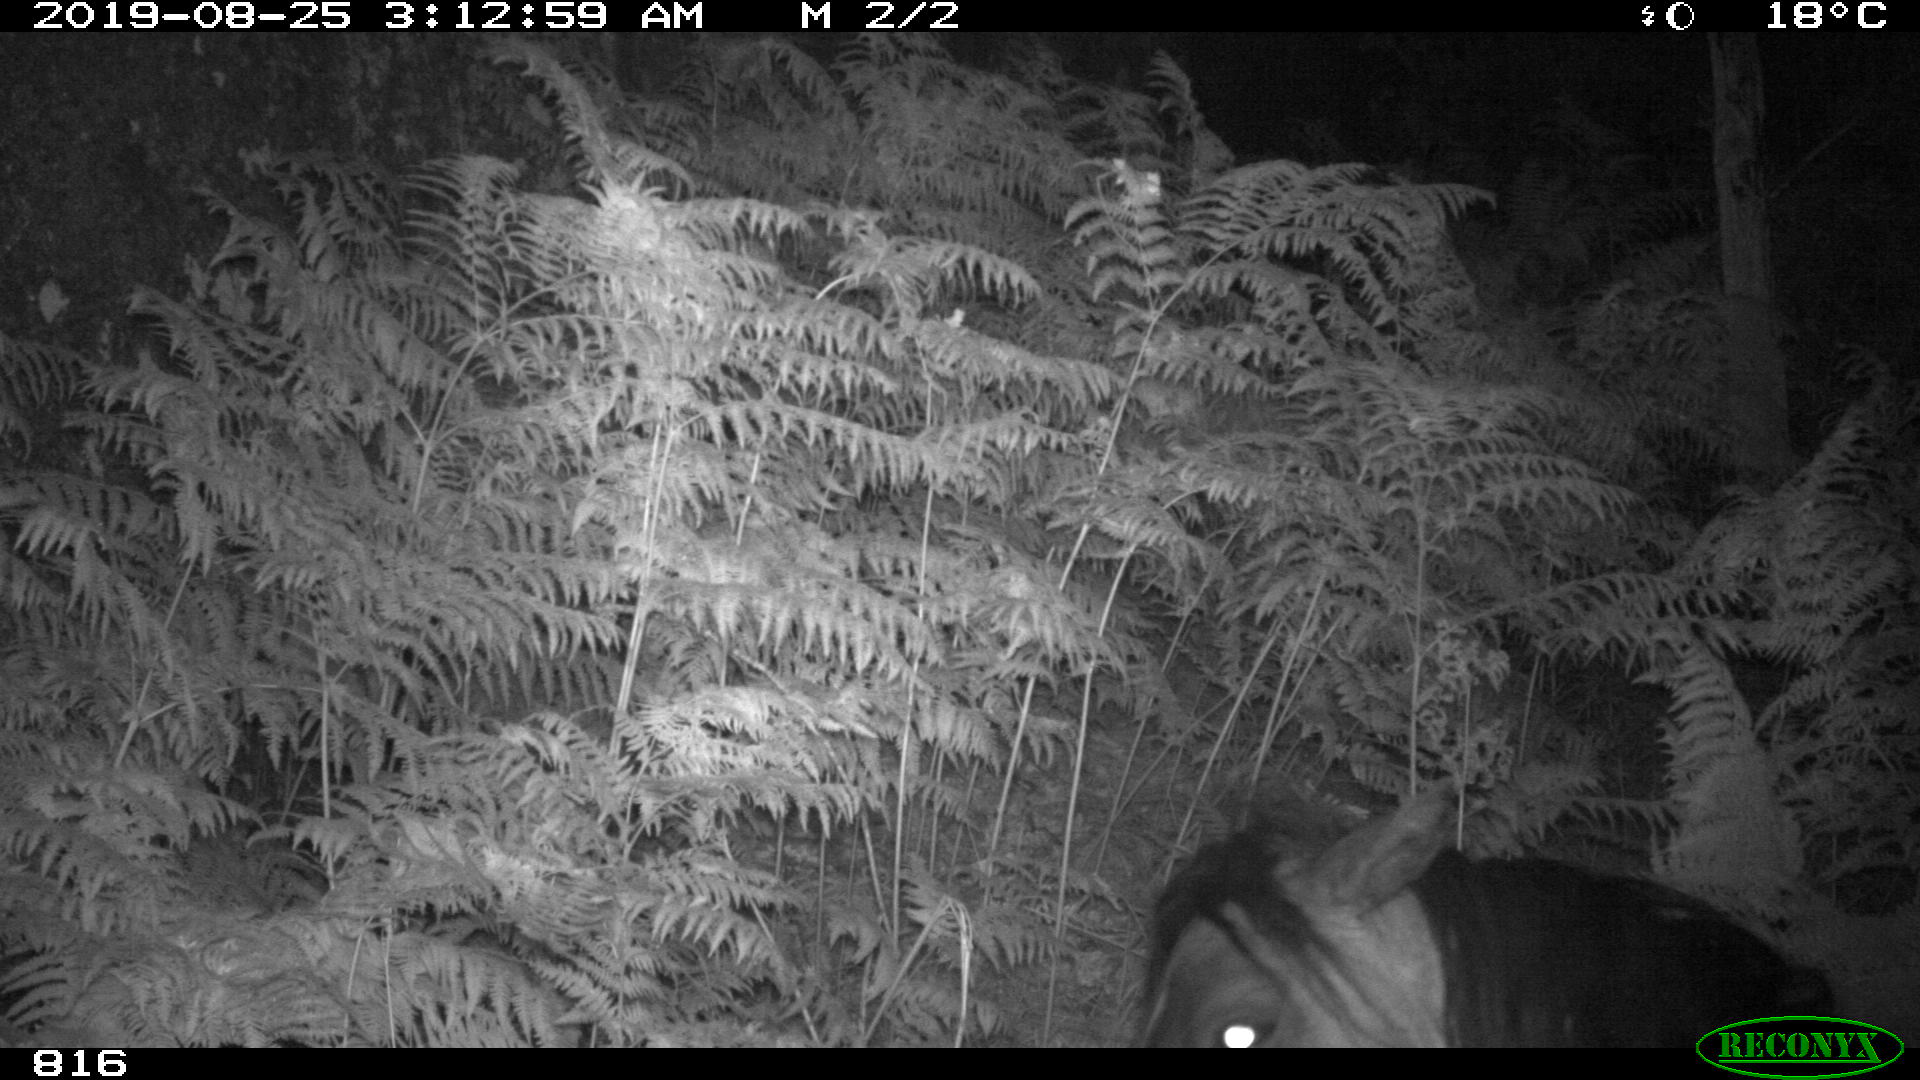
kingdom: Animalia
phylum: Chordata
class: Mammalia
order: Perissodactyla
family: Equidae
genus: Equus
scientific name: Equus caballus
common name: Horse
